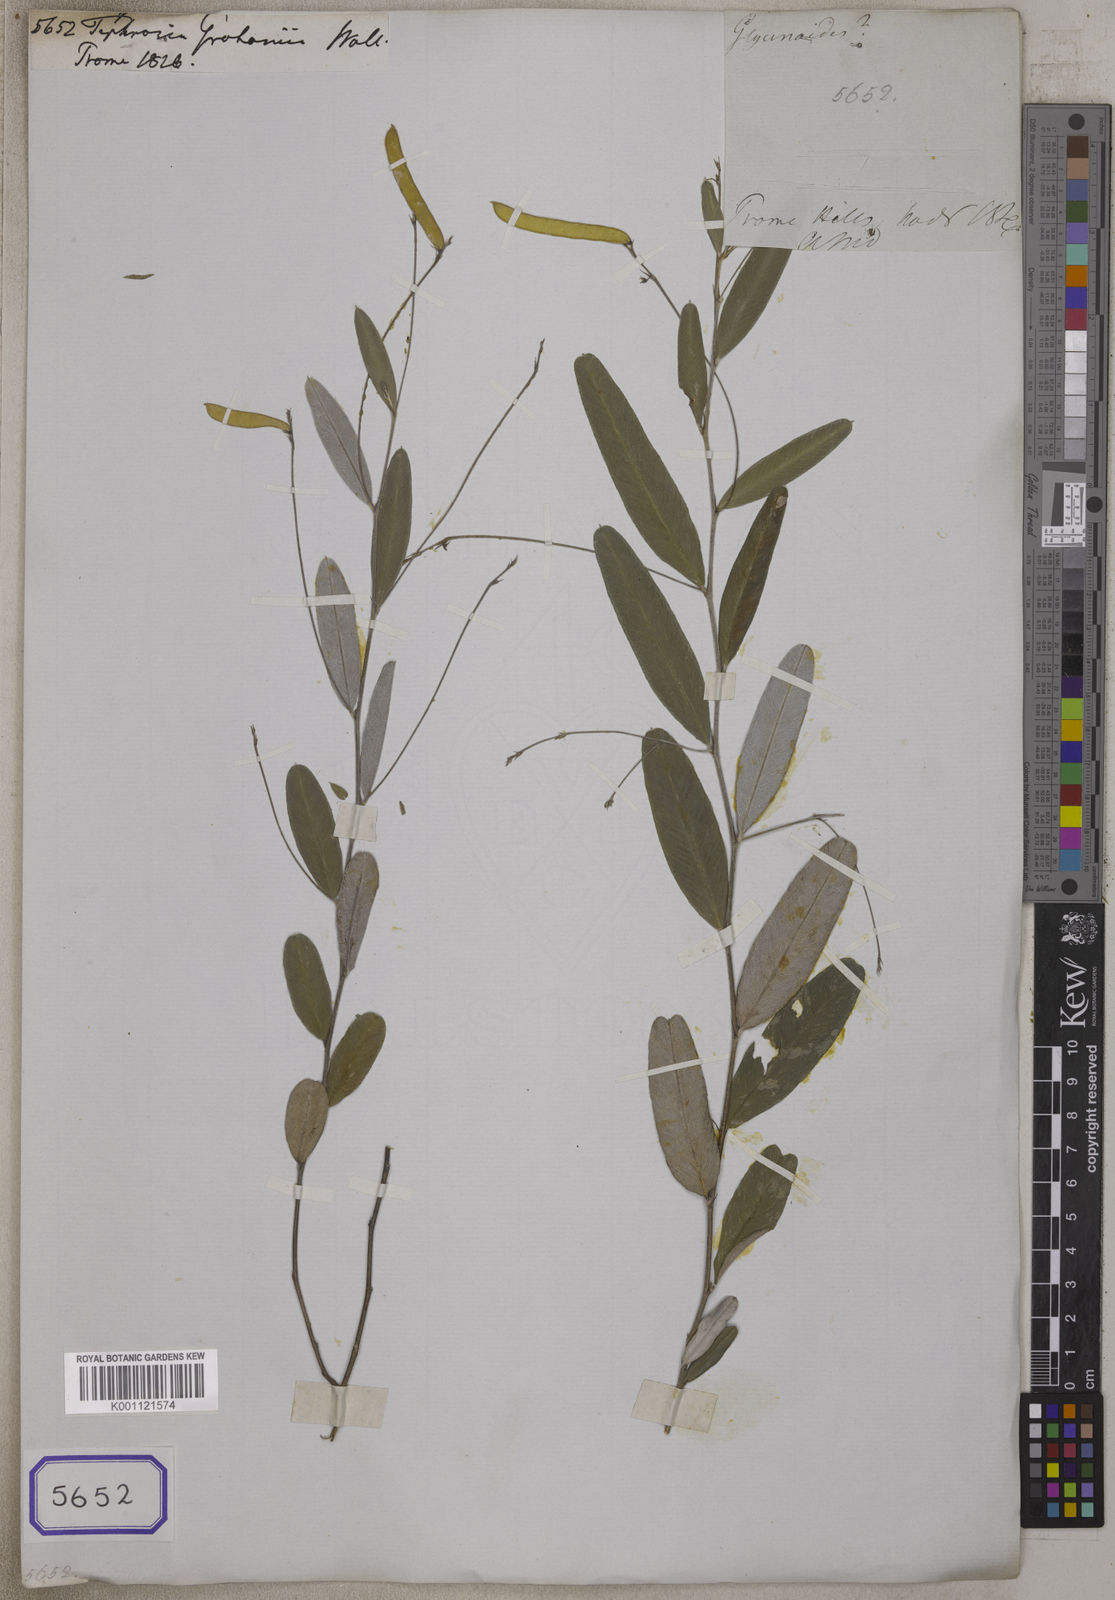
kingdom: Plantae
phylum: Tracheophyta
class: Magnoliopsida
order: Fabales
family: Fabaceae
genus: Tephrosia
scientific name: Tephrosia tinctoria
